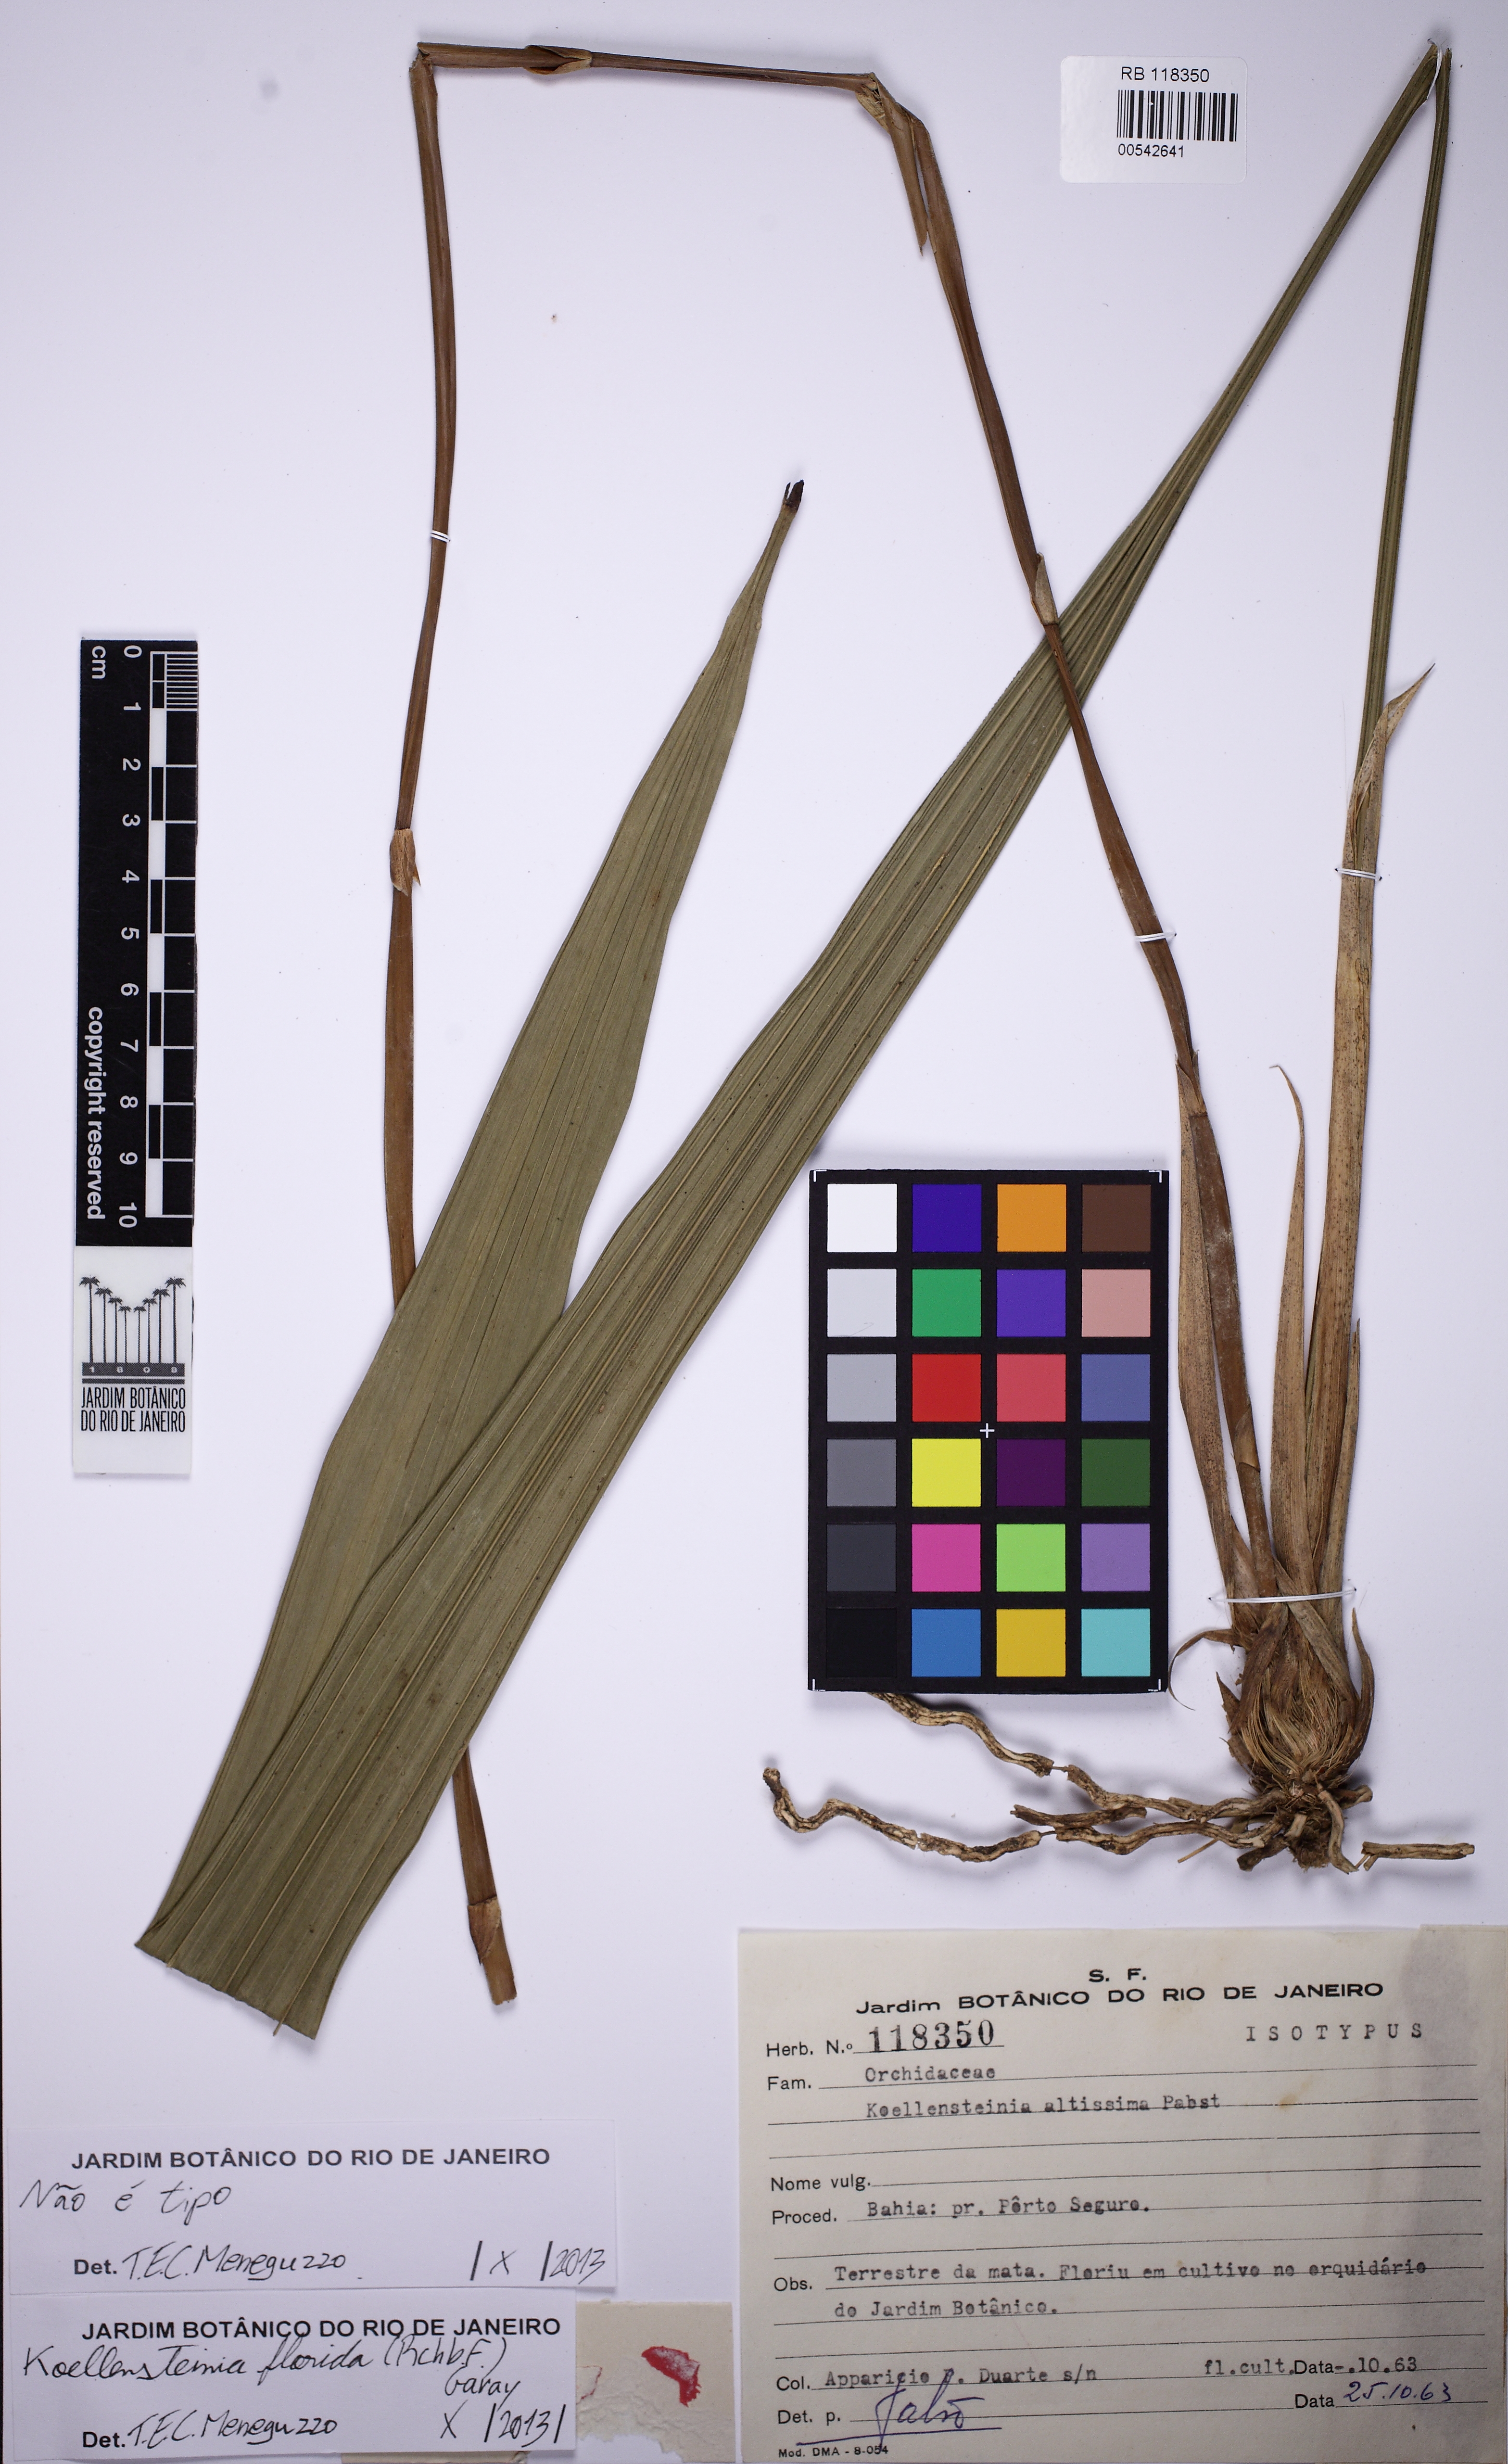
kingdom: Plantae
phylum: Tracheophyta
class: Liliopsida
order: Asparagales
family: Orchidaceae
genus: Koellensteinia
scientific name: Koellensteinia florida
